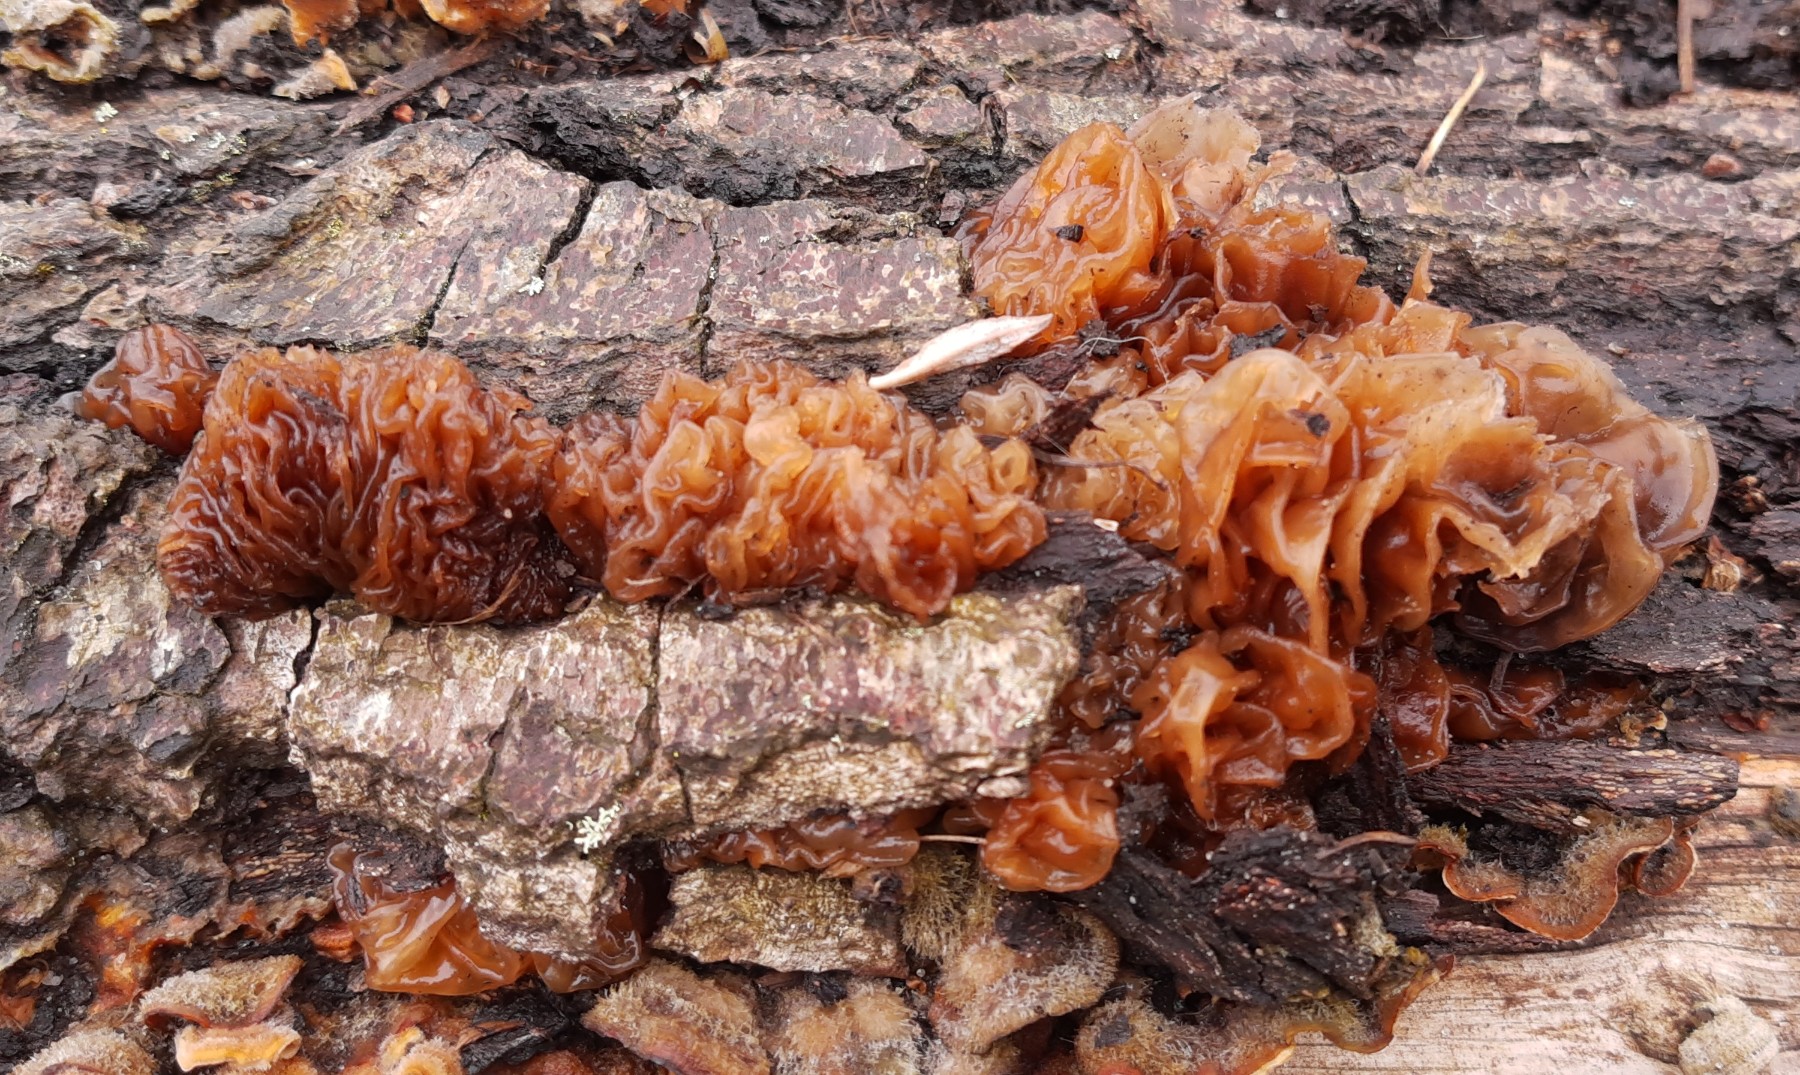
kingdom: Fungi
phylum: Basidiomycota
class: Tremellomycetes
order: Tremellales
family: Tremellaceae
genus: Phaeotremella
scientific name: Phaeotremella frondosa
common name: kæmpe-bævresvamp
